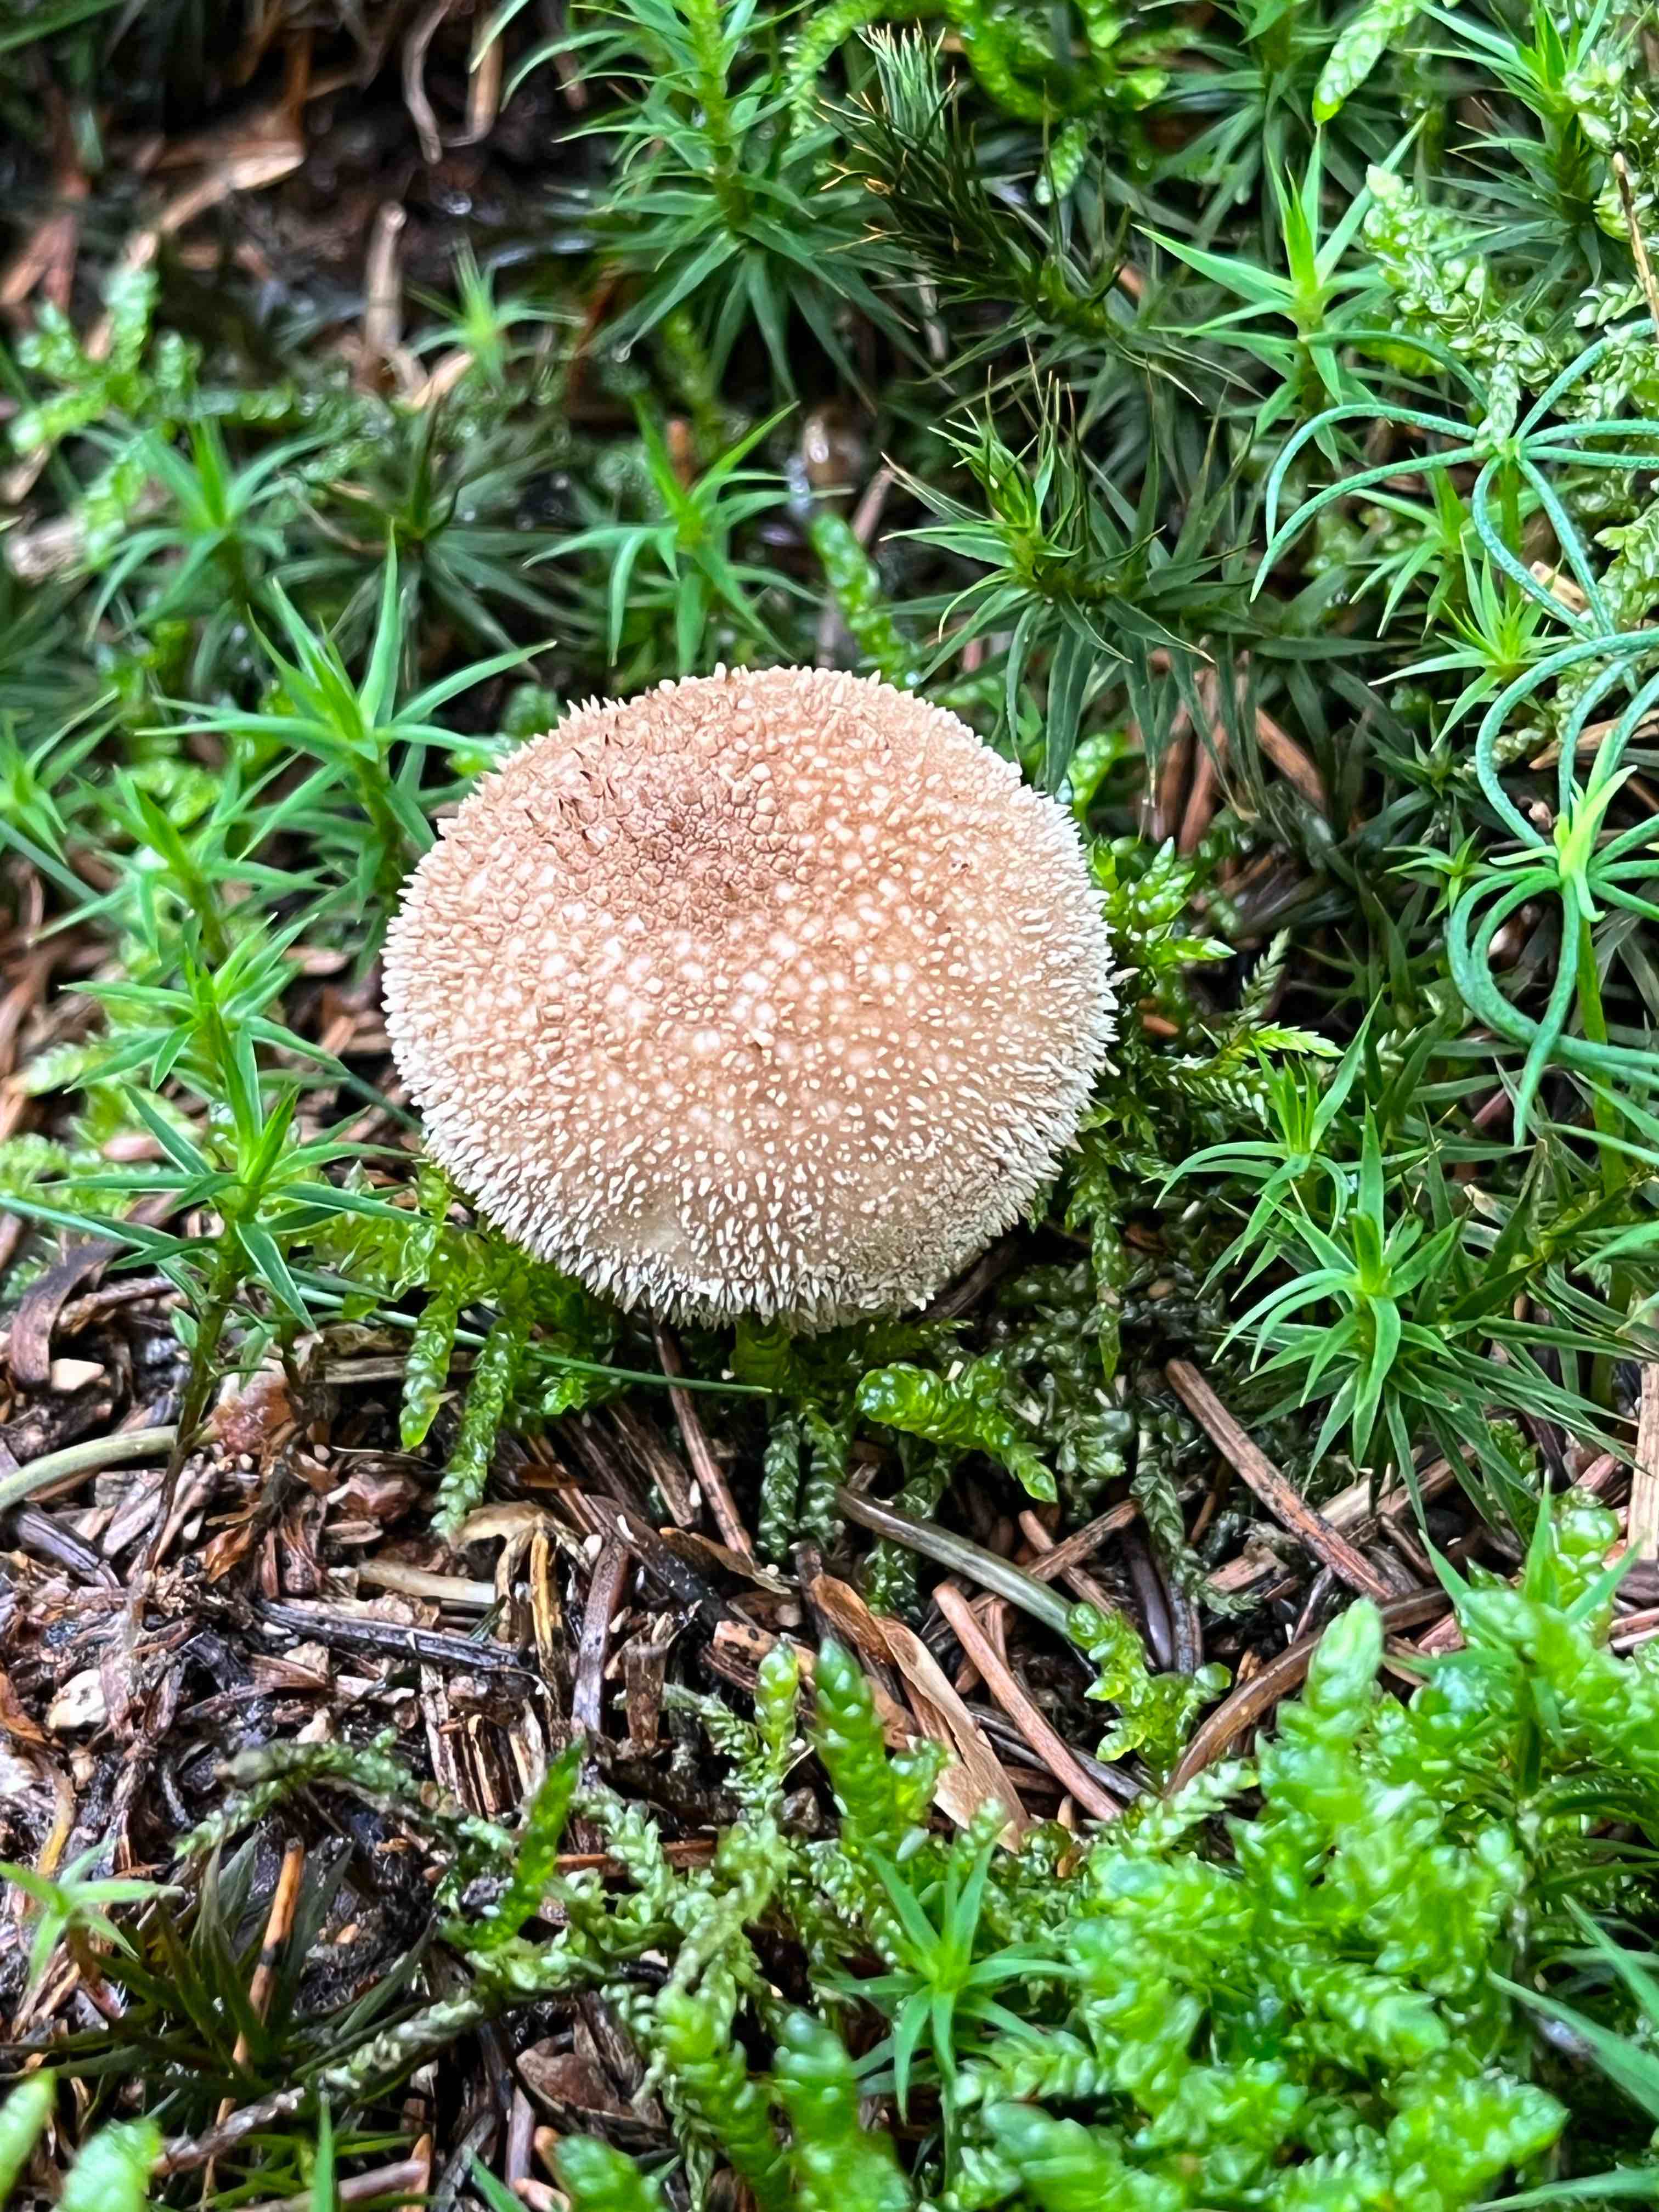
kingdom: Fungi
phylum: Basidiomycota
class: Agaricomycetes
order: Agaricales
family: Lycoperdaceae
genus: Lycoperdon
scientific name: Lycoperdon nigrescens
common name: sortagtig støvbold
